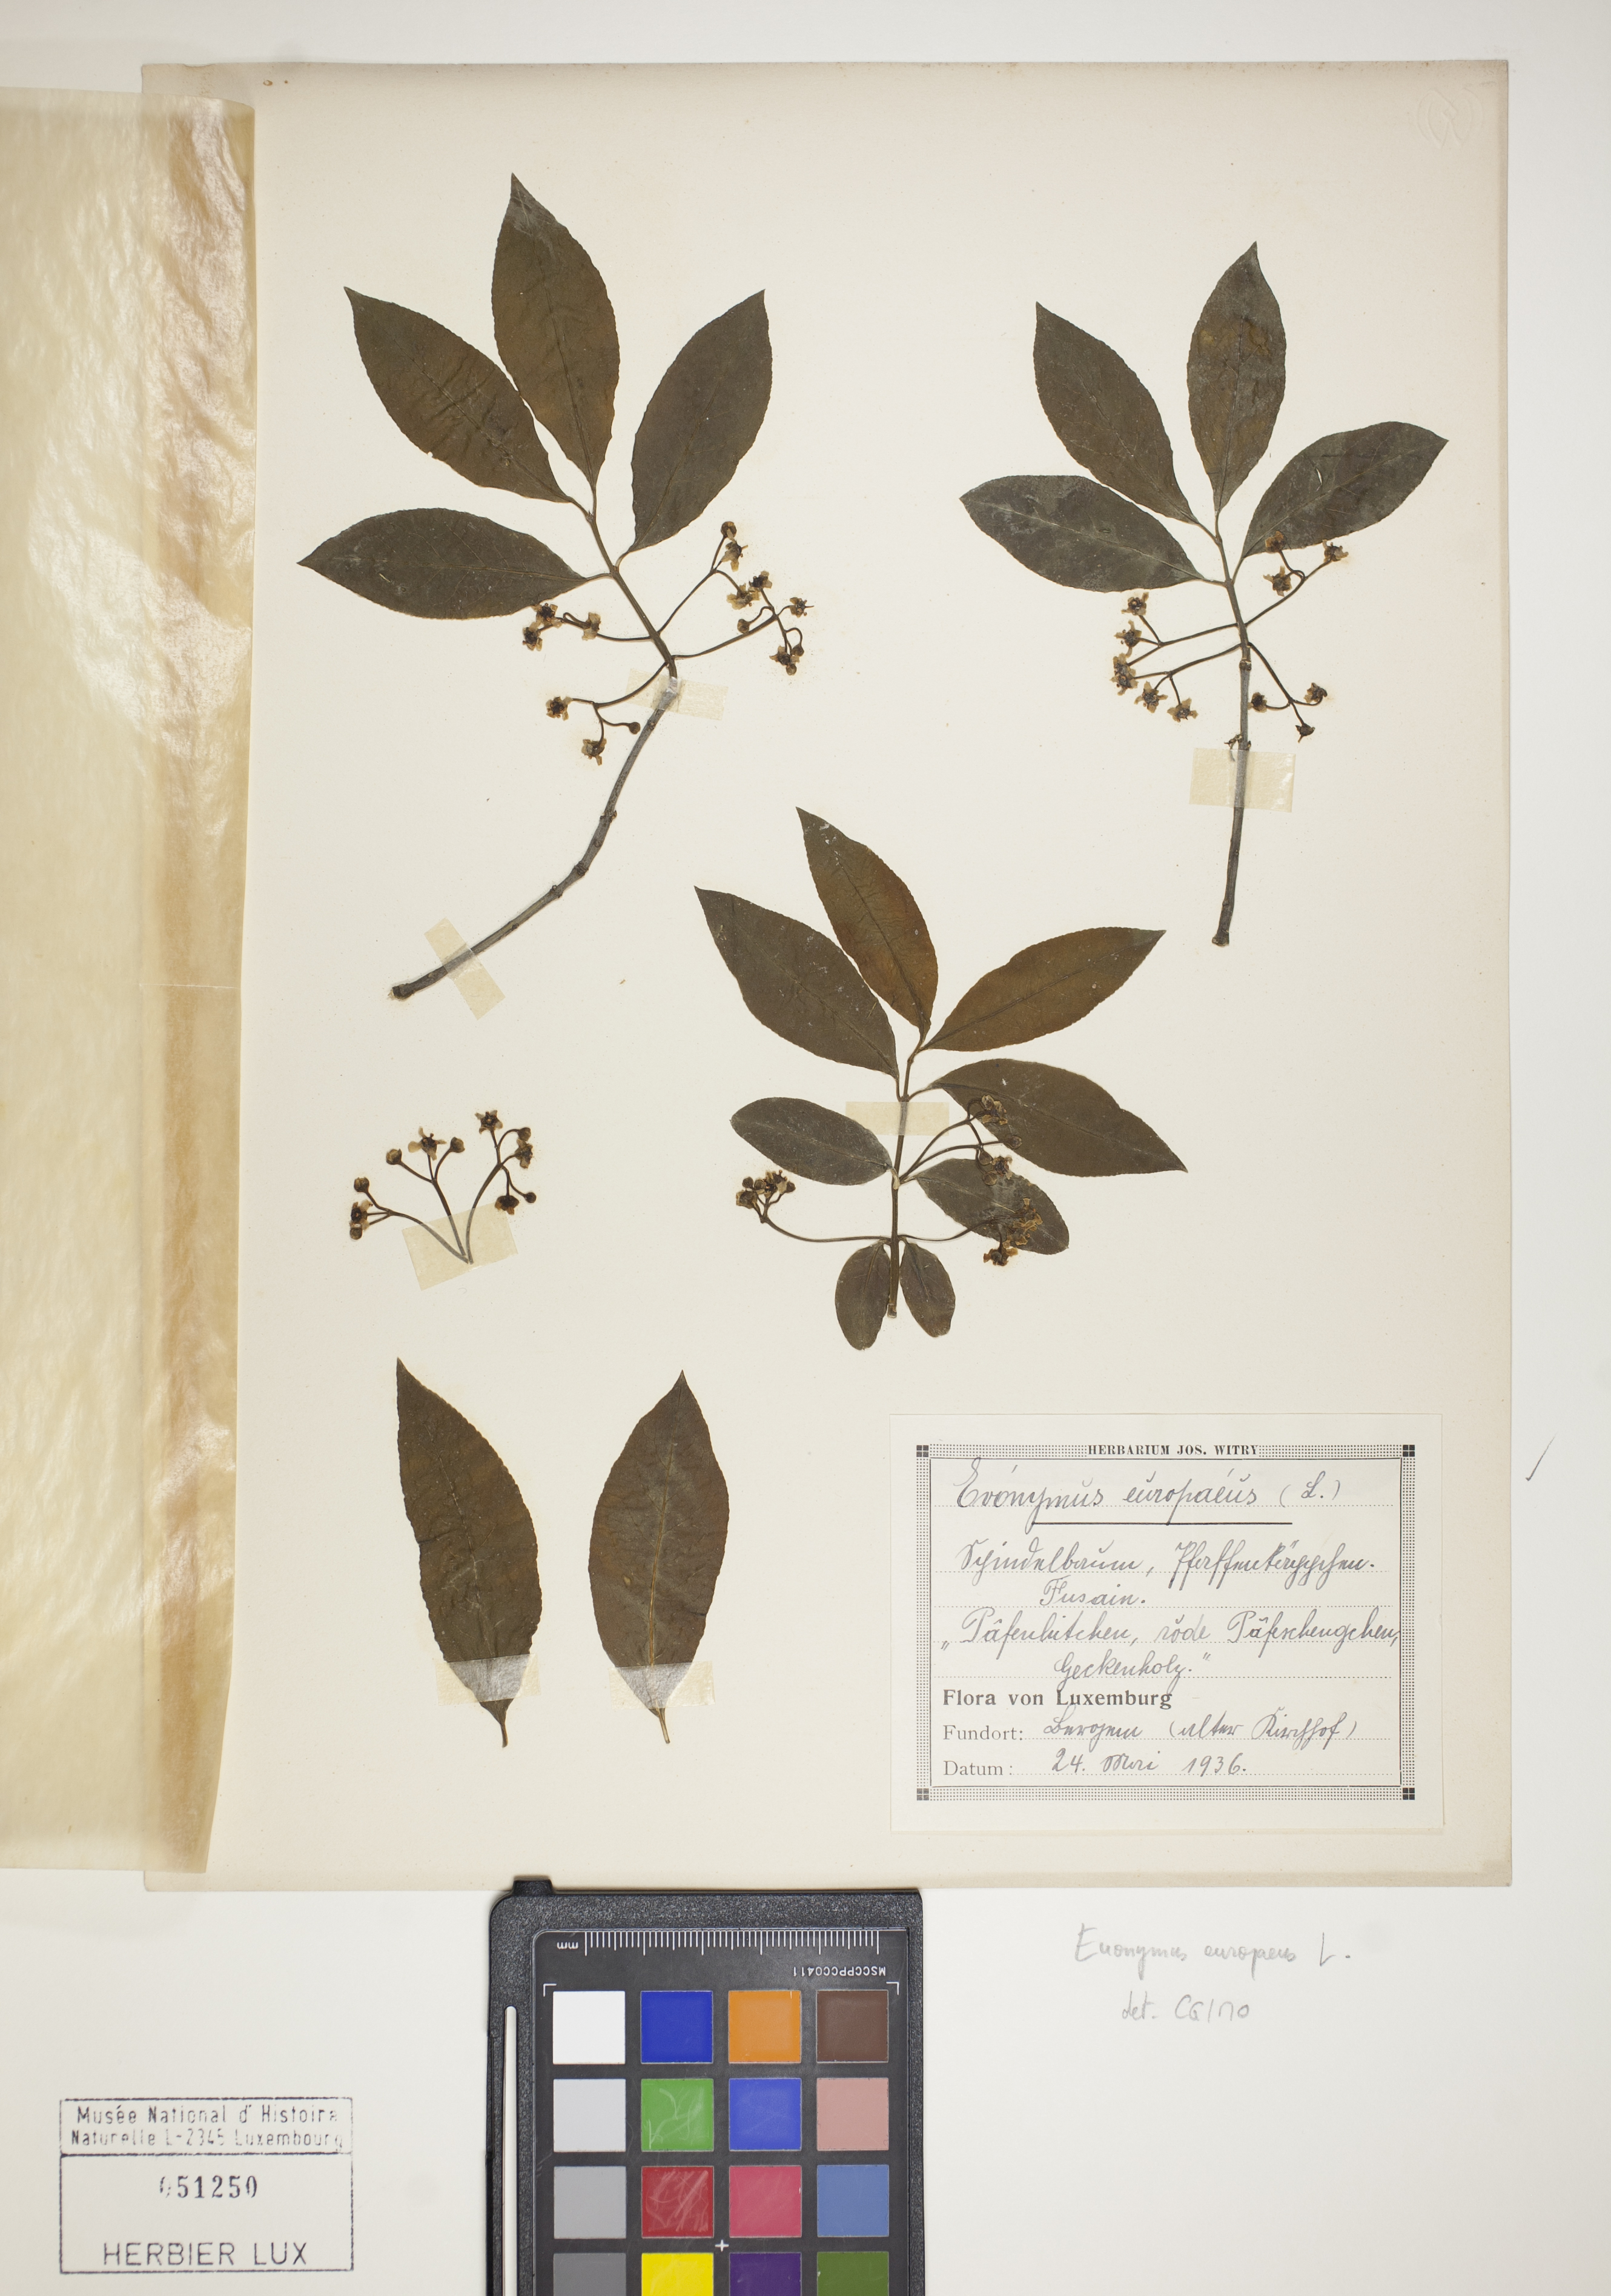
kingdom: Plantae
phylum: Tracheophyta
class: Magnoliopsida
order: Celastrales
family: Celastraceae
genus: Euonymus
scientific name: Euonymus europaeus
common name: Spindle
